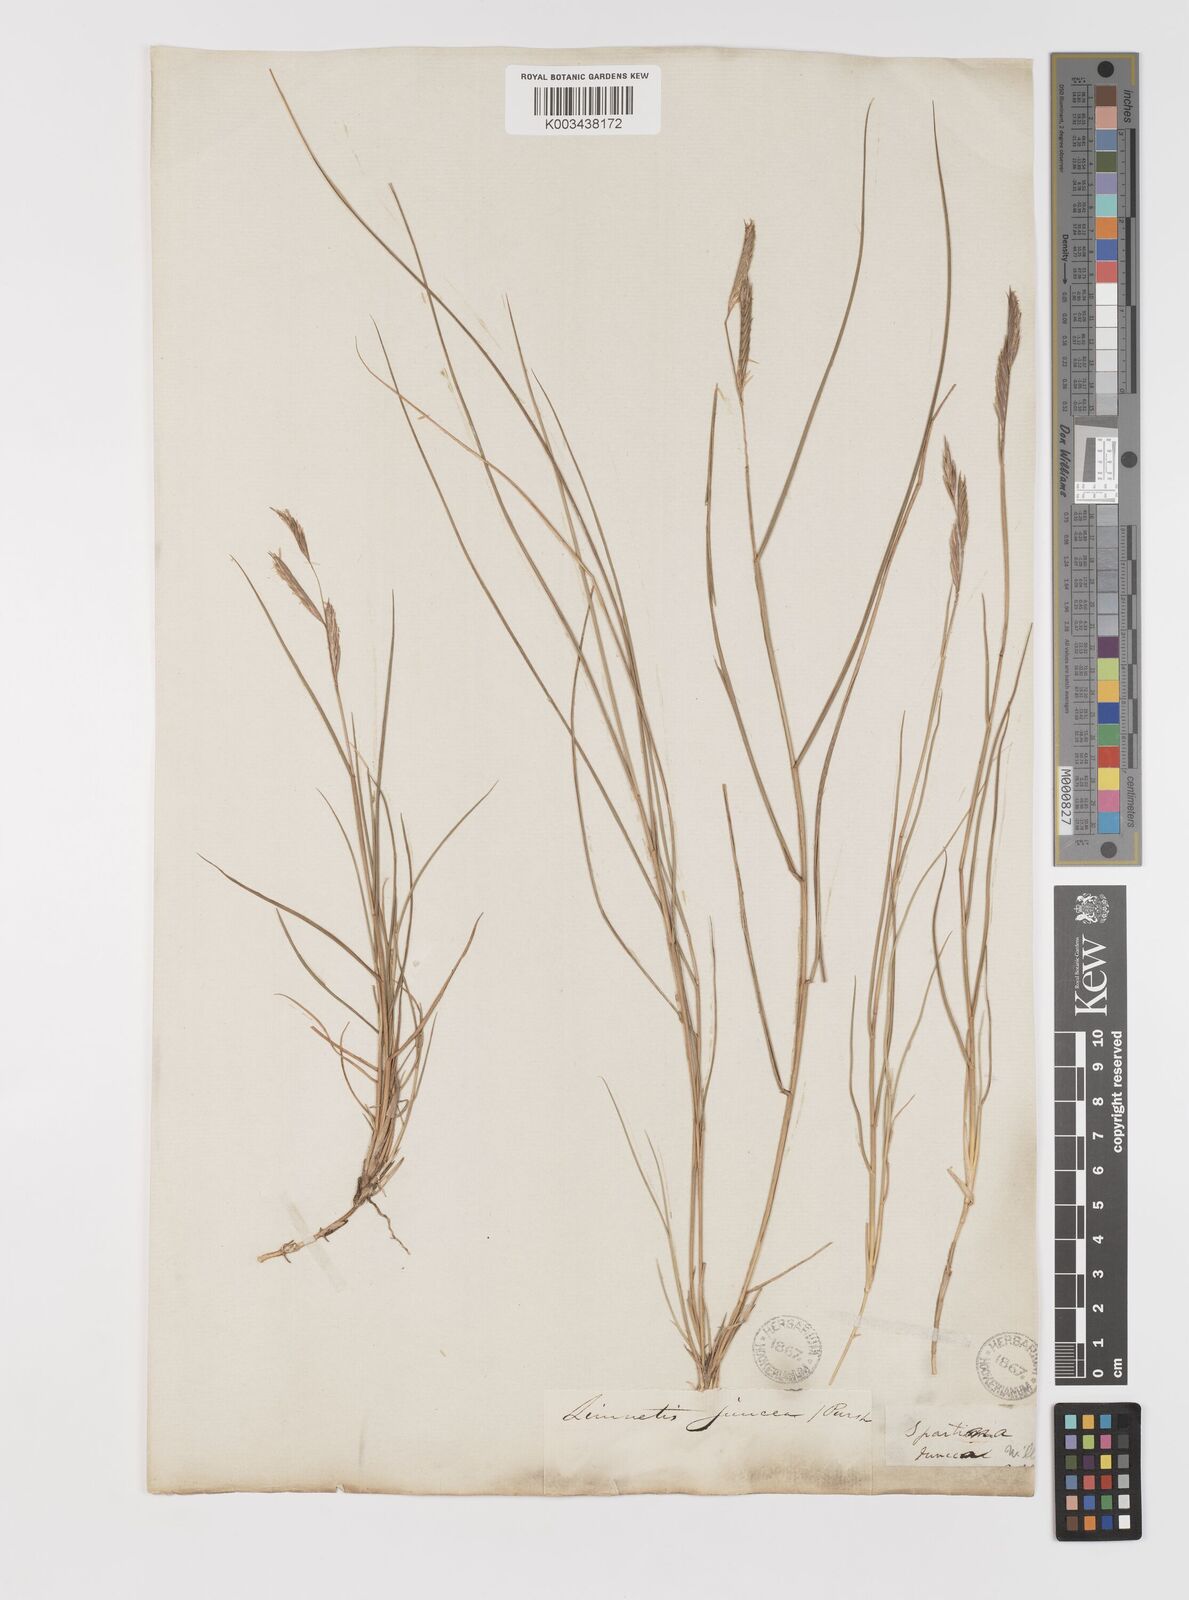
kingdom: Plantae
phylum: Tracheophyta
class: Liliopsida
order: Poales
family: Poaceae
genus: Sporobolus
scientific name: Sporobolus pumilus
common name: Highwater grass
